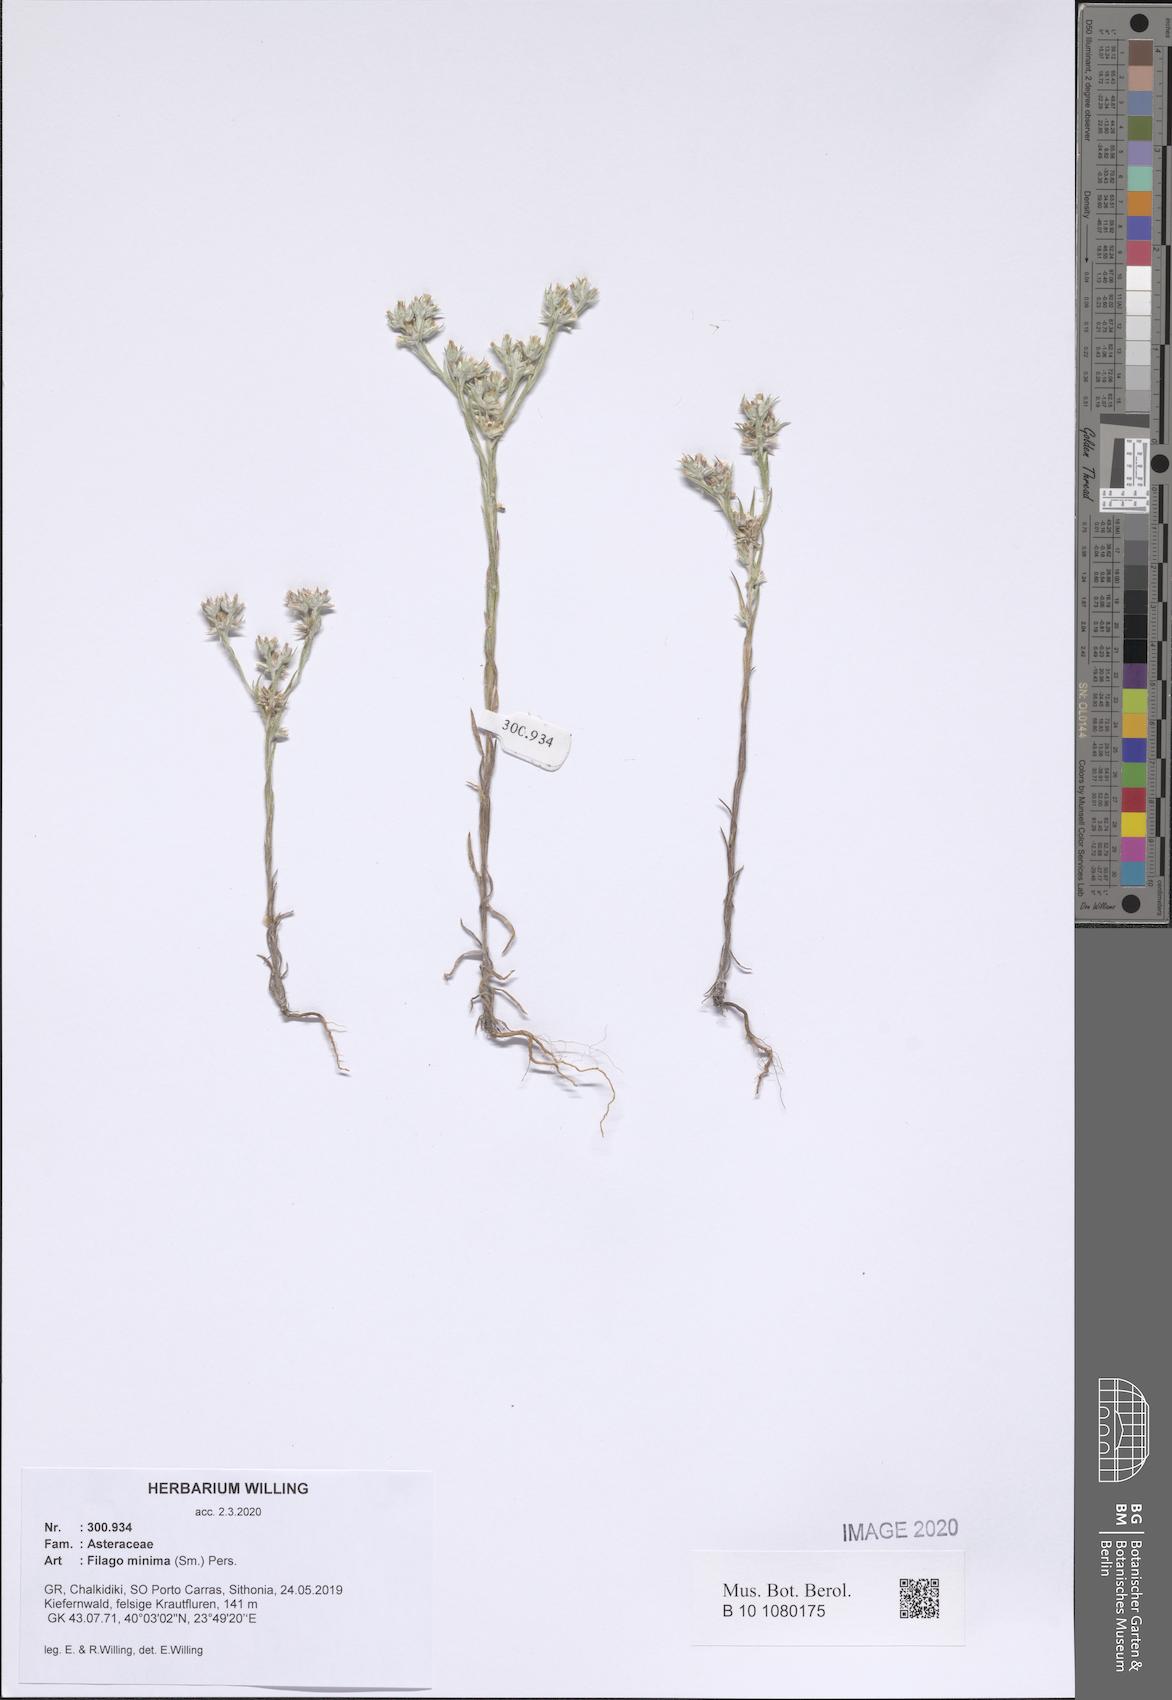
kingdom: Plantae
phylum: Tracheophyta
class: Magnoliopsida
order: Asterales
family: Asteraceae
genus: Logfia
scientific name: Logfia minima
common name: Little cottonrose
